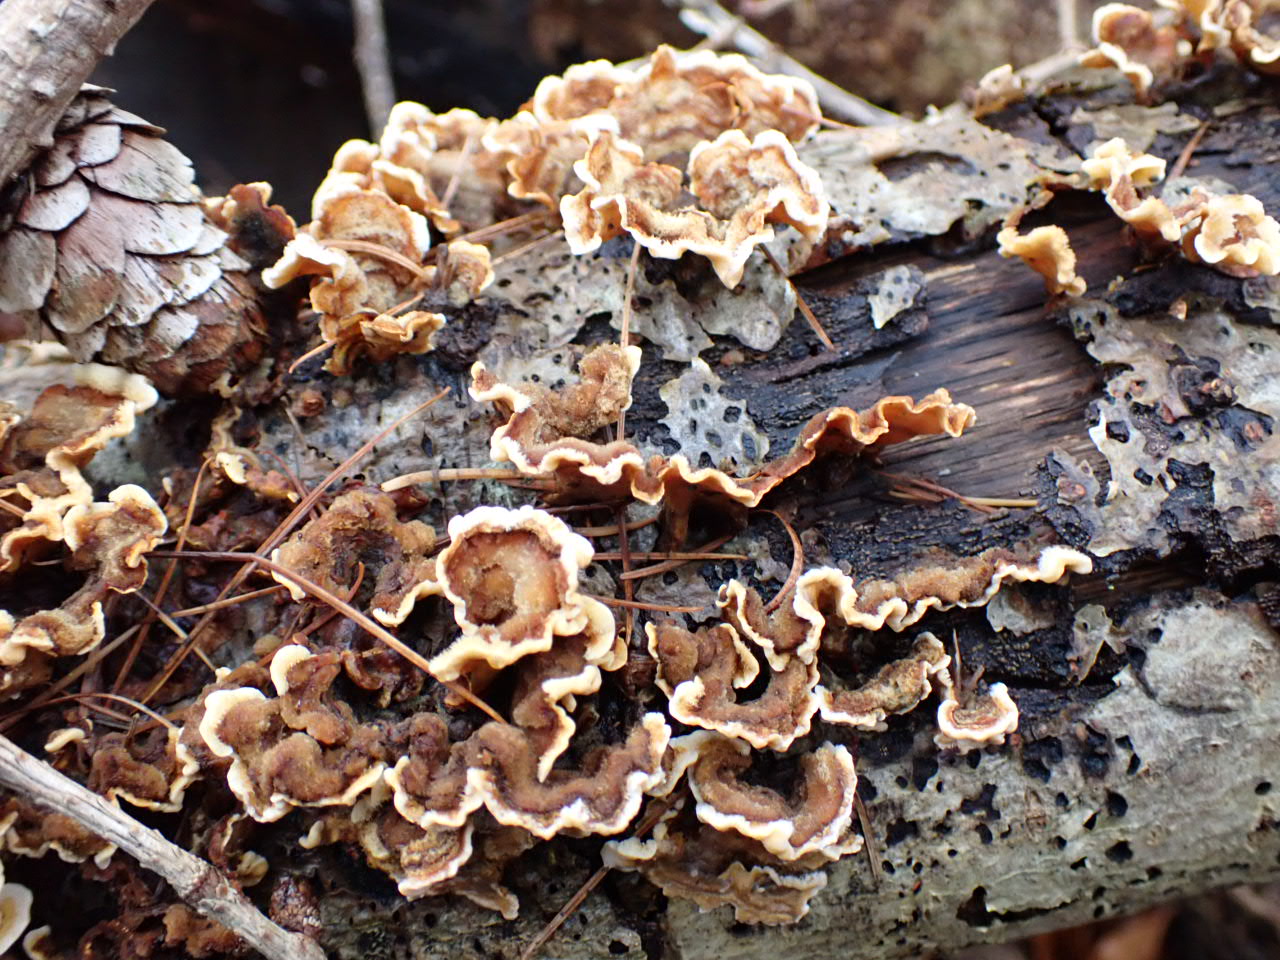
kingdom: Fungi
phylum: Basidiomycota
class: Agaricomycetes
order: Russulales
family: Stereaceae
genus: Stereum
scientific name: Stereum hirsutum
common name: håret lædersvamp
